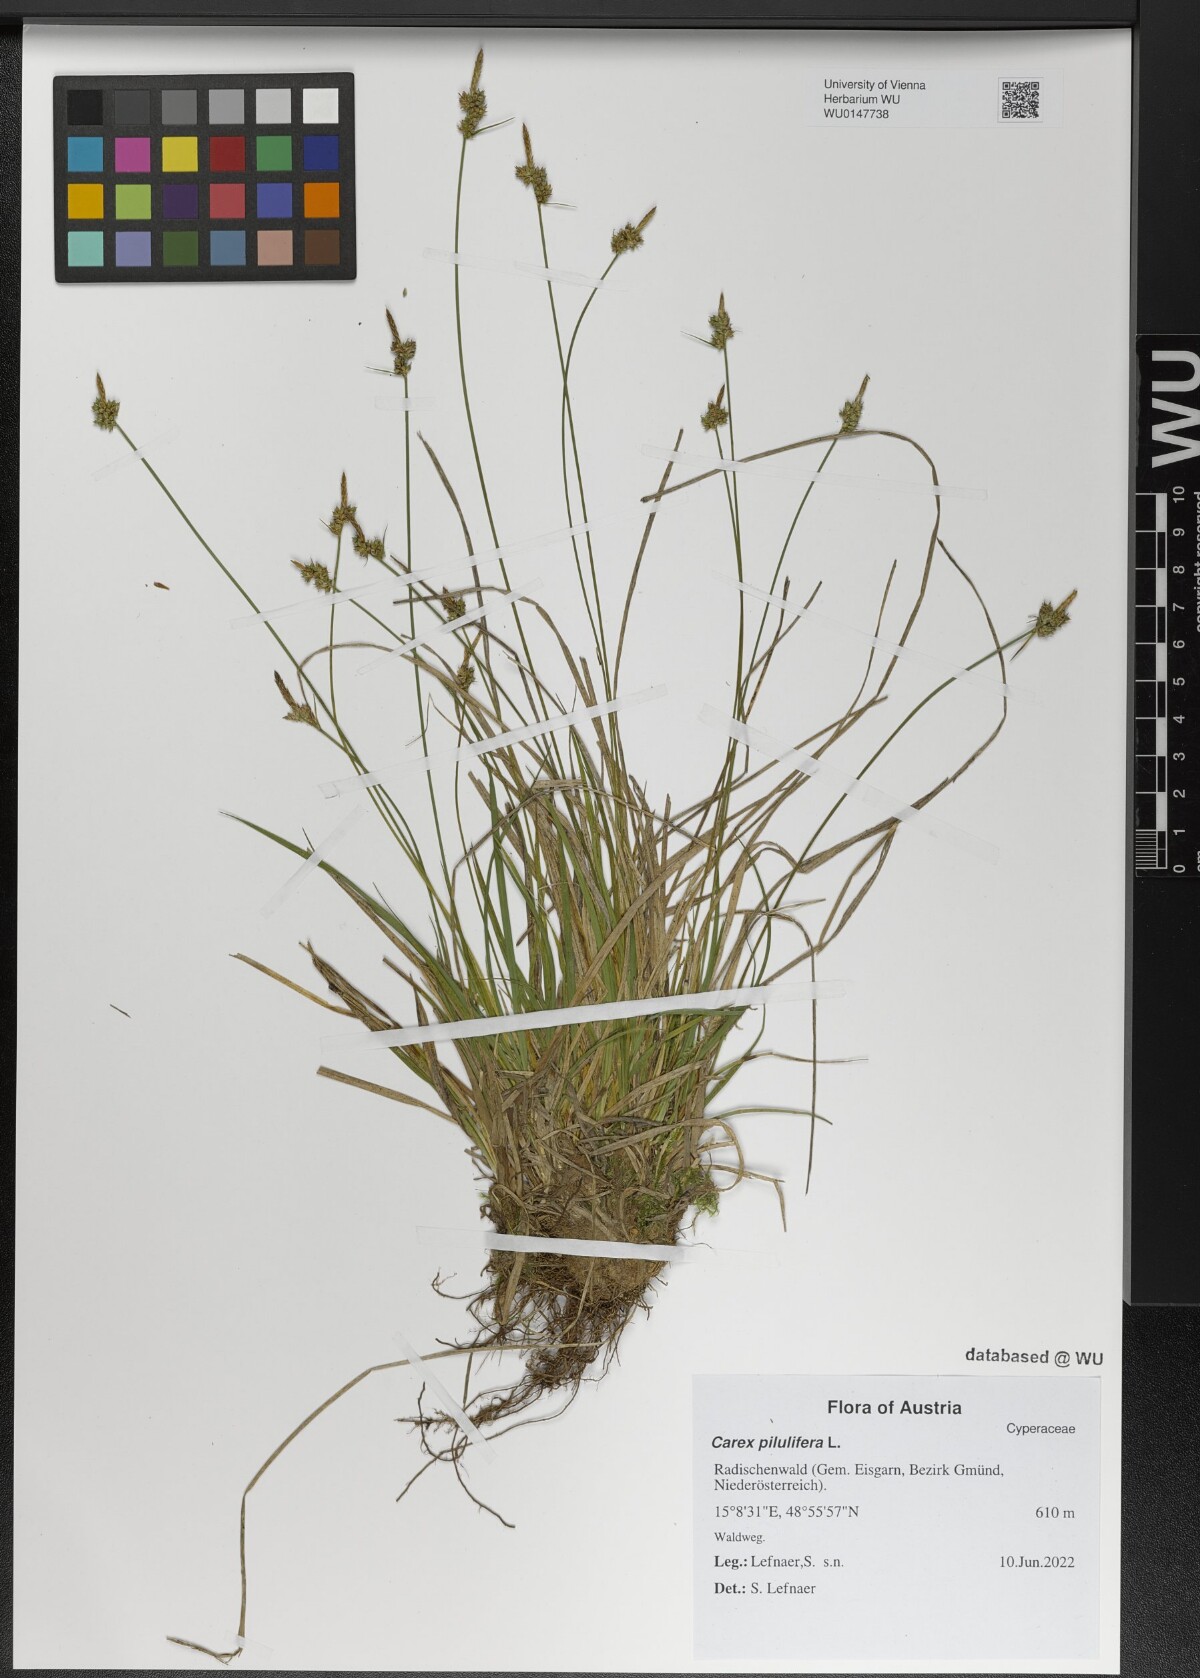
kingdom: Plantae
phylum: Tracheophyta
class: Liliopsida
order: Poales
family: Cyperaceae
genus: Carex
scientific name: Carex pilulifera
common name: Pill sedge
